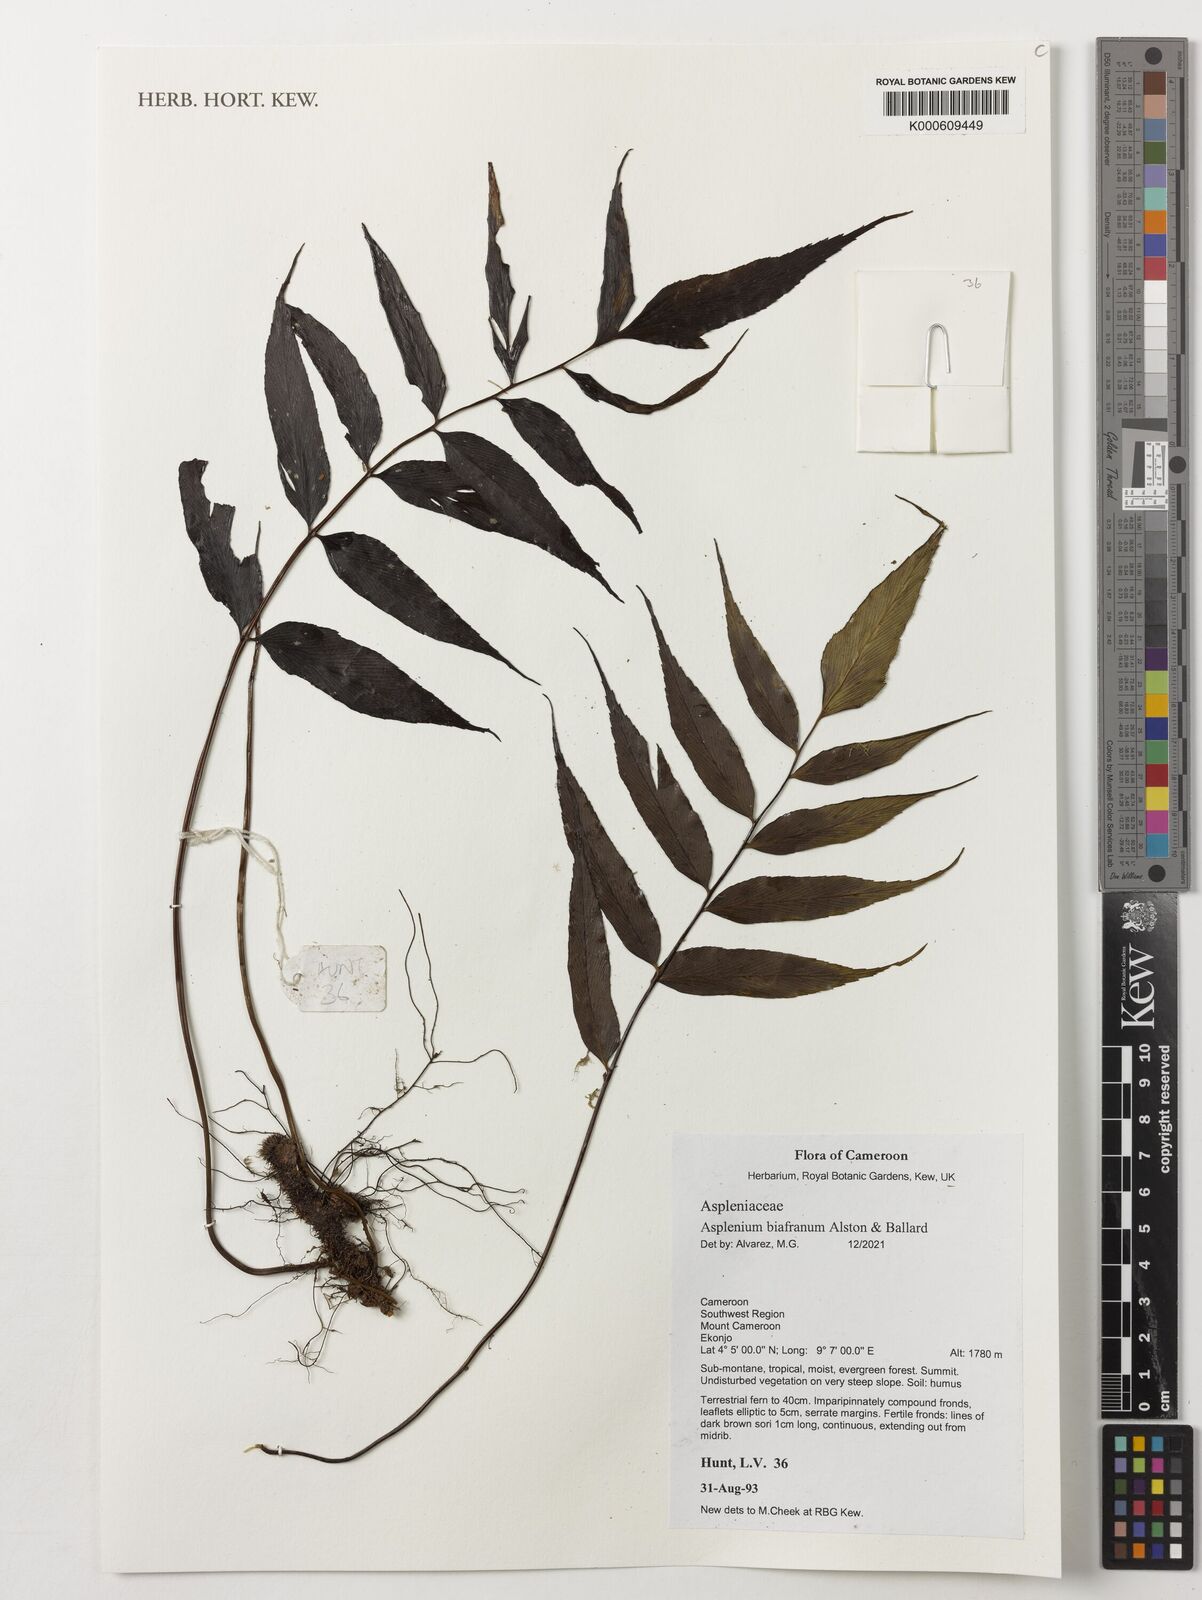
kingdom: Plantae
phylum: Tracheophyta
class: Polypodiopsida
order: Polypodiales
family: Aspleniaceae
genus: Asplenium
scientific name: Asplenium biafranum
